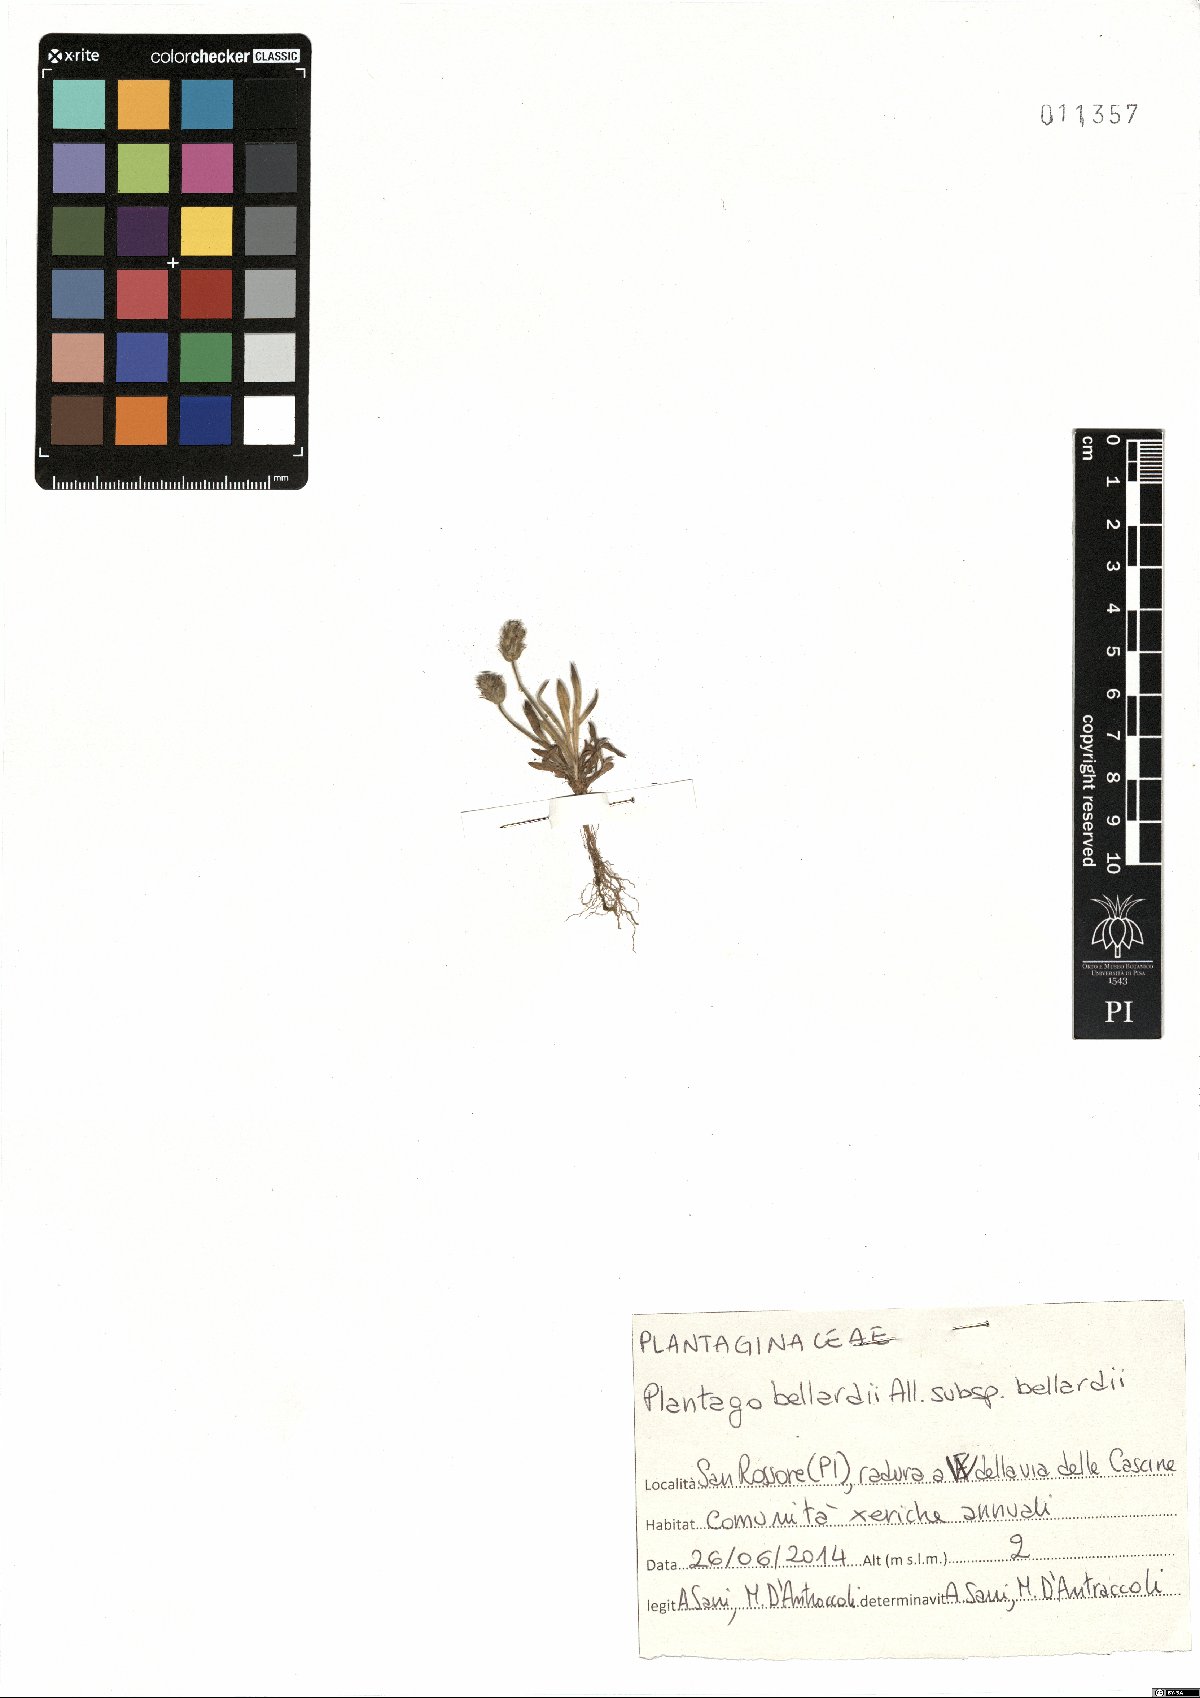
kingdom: Plantae
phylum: Tracheophyta
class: Magnoliopsida
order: Lamiales
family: Plantaginaceae
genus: Plantago
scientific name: Plantago bellardii
